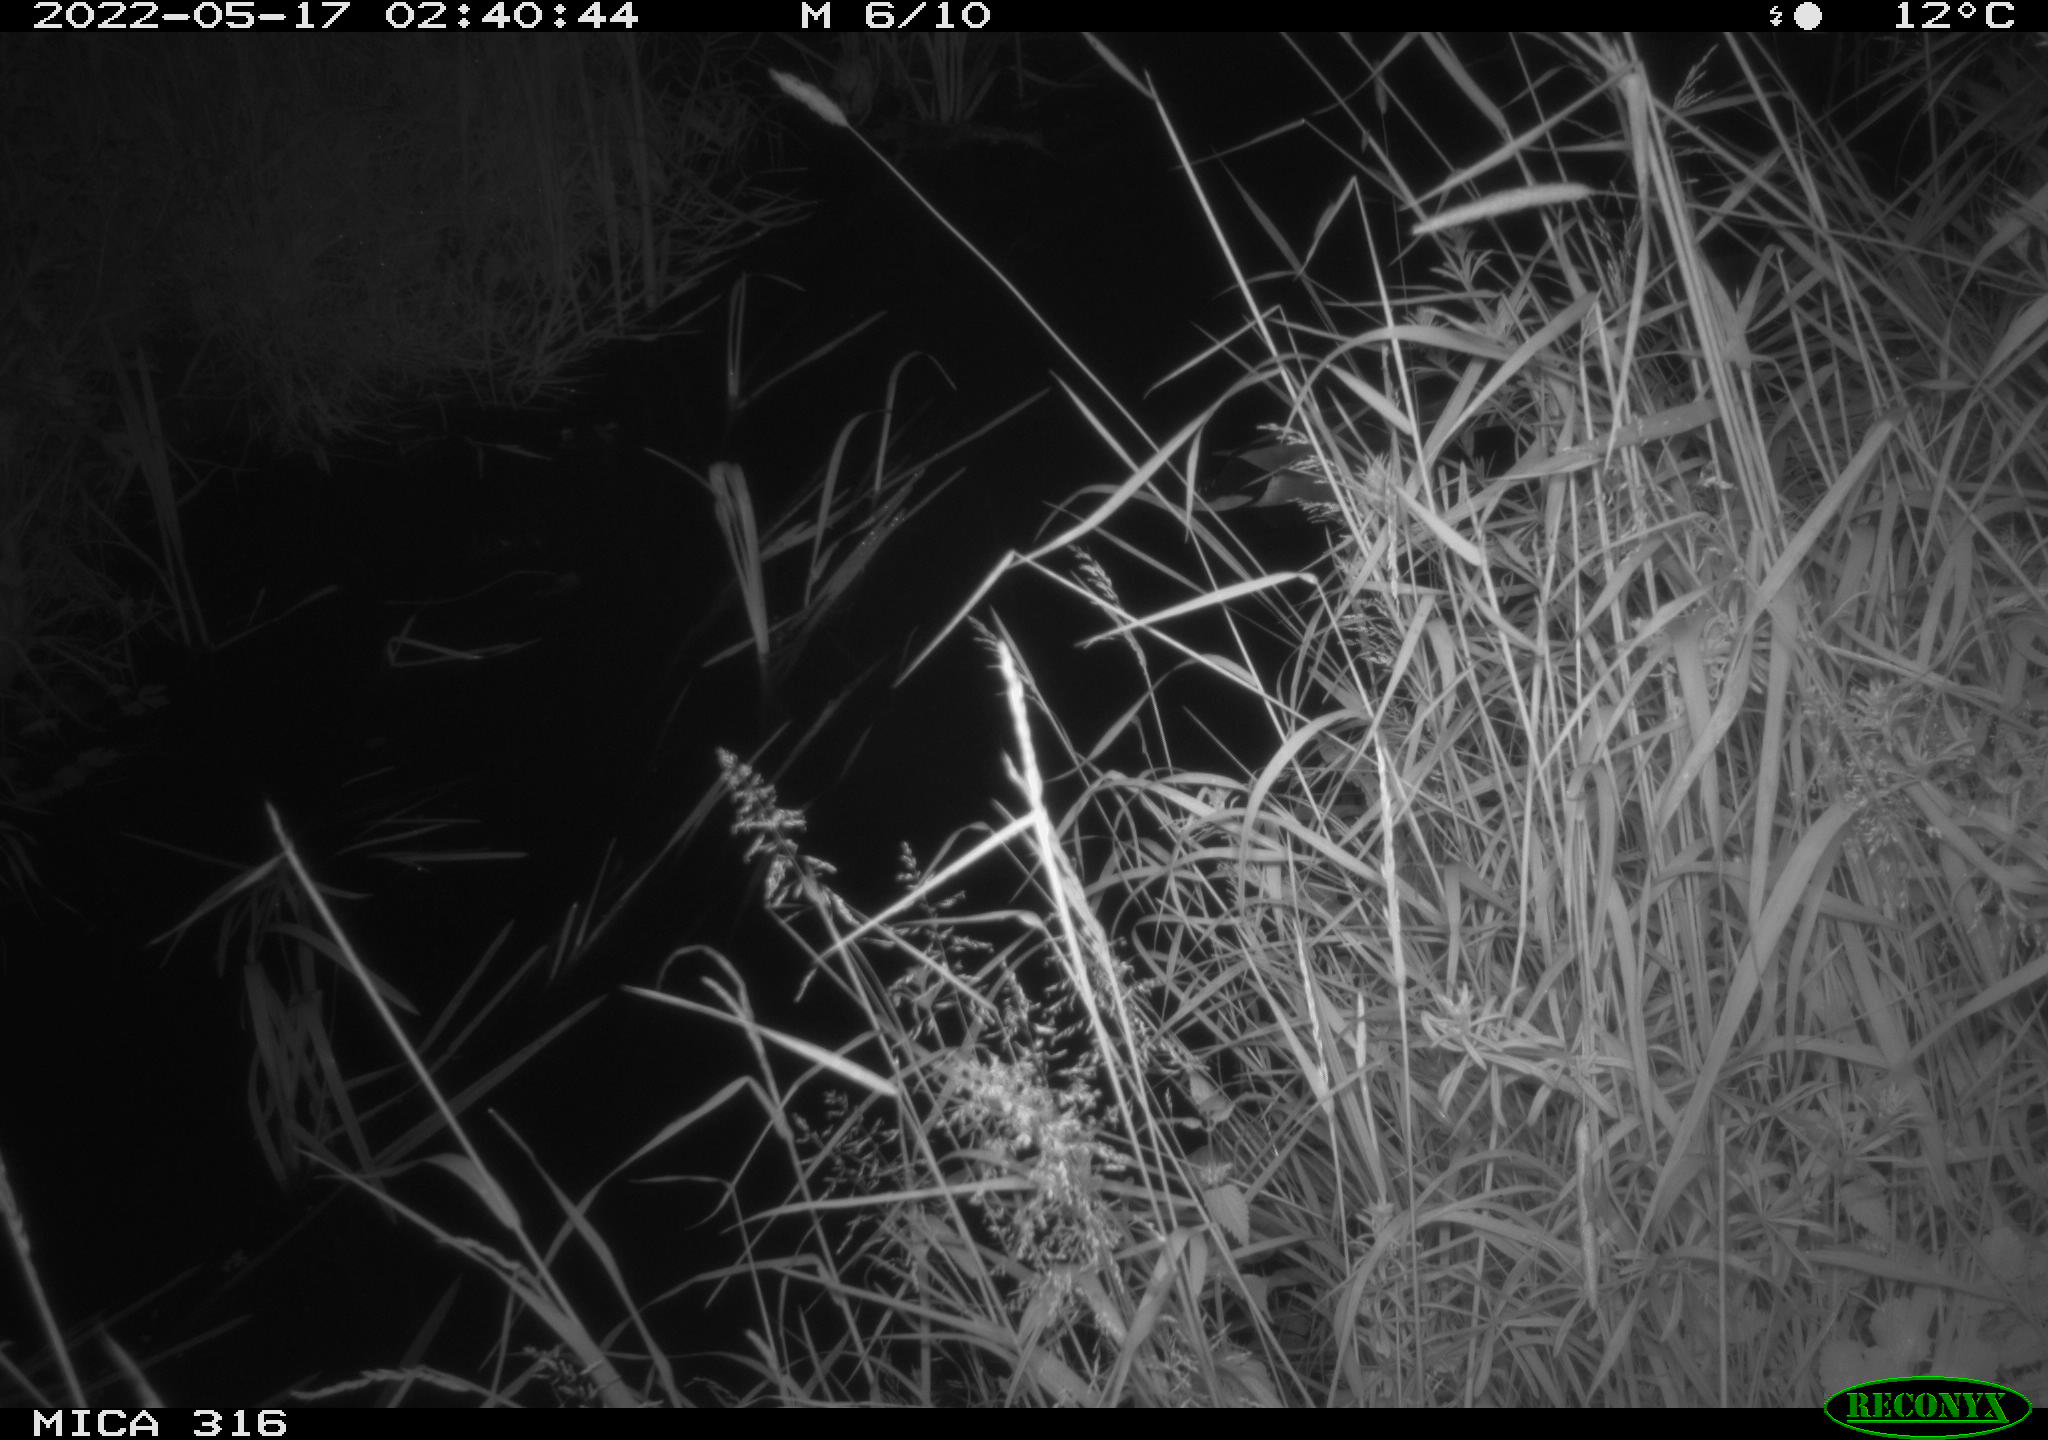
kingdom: Animalia
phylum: Chordata
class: Aves
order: Anseriformes
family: Anatidae
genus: Anas
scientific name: Anas
